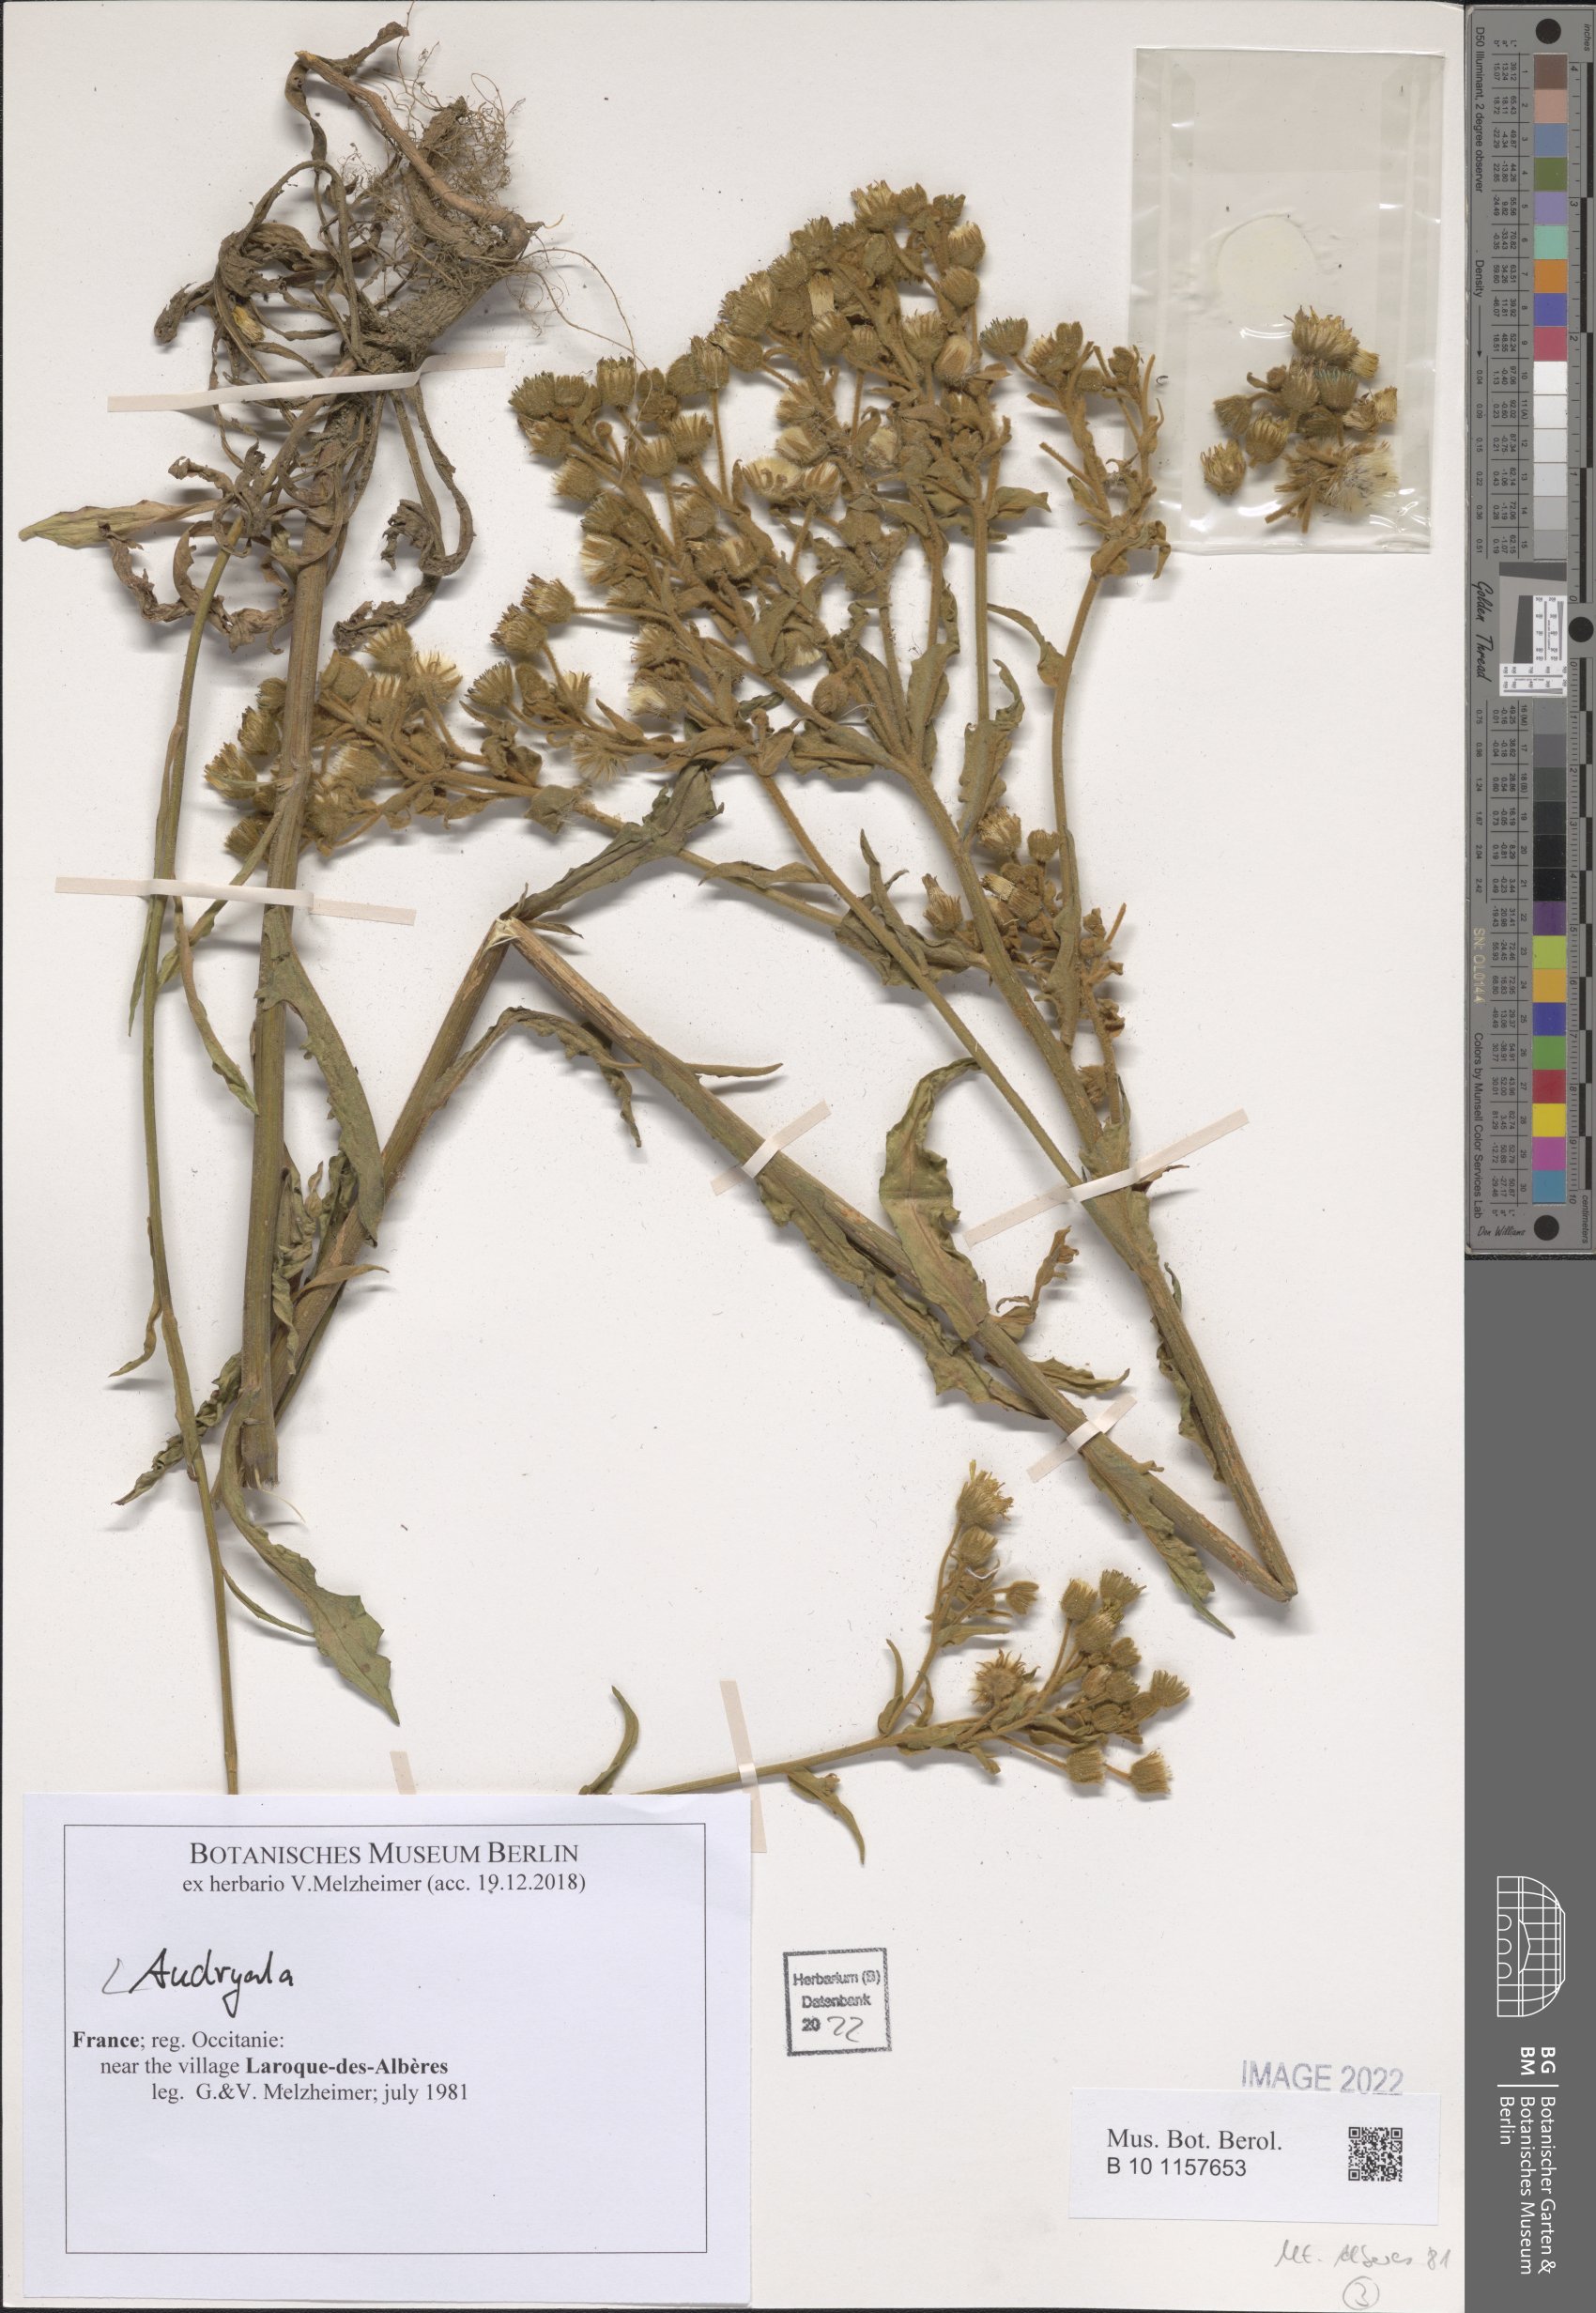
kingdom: Plantae
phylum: Tracheophyta
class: Magnoliopsida
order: Asterales
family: Asteraceae
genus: Andryala
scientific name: Andryala
